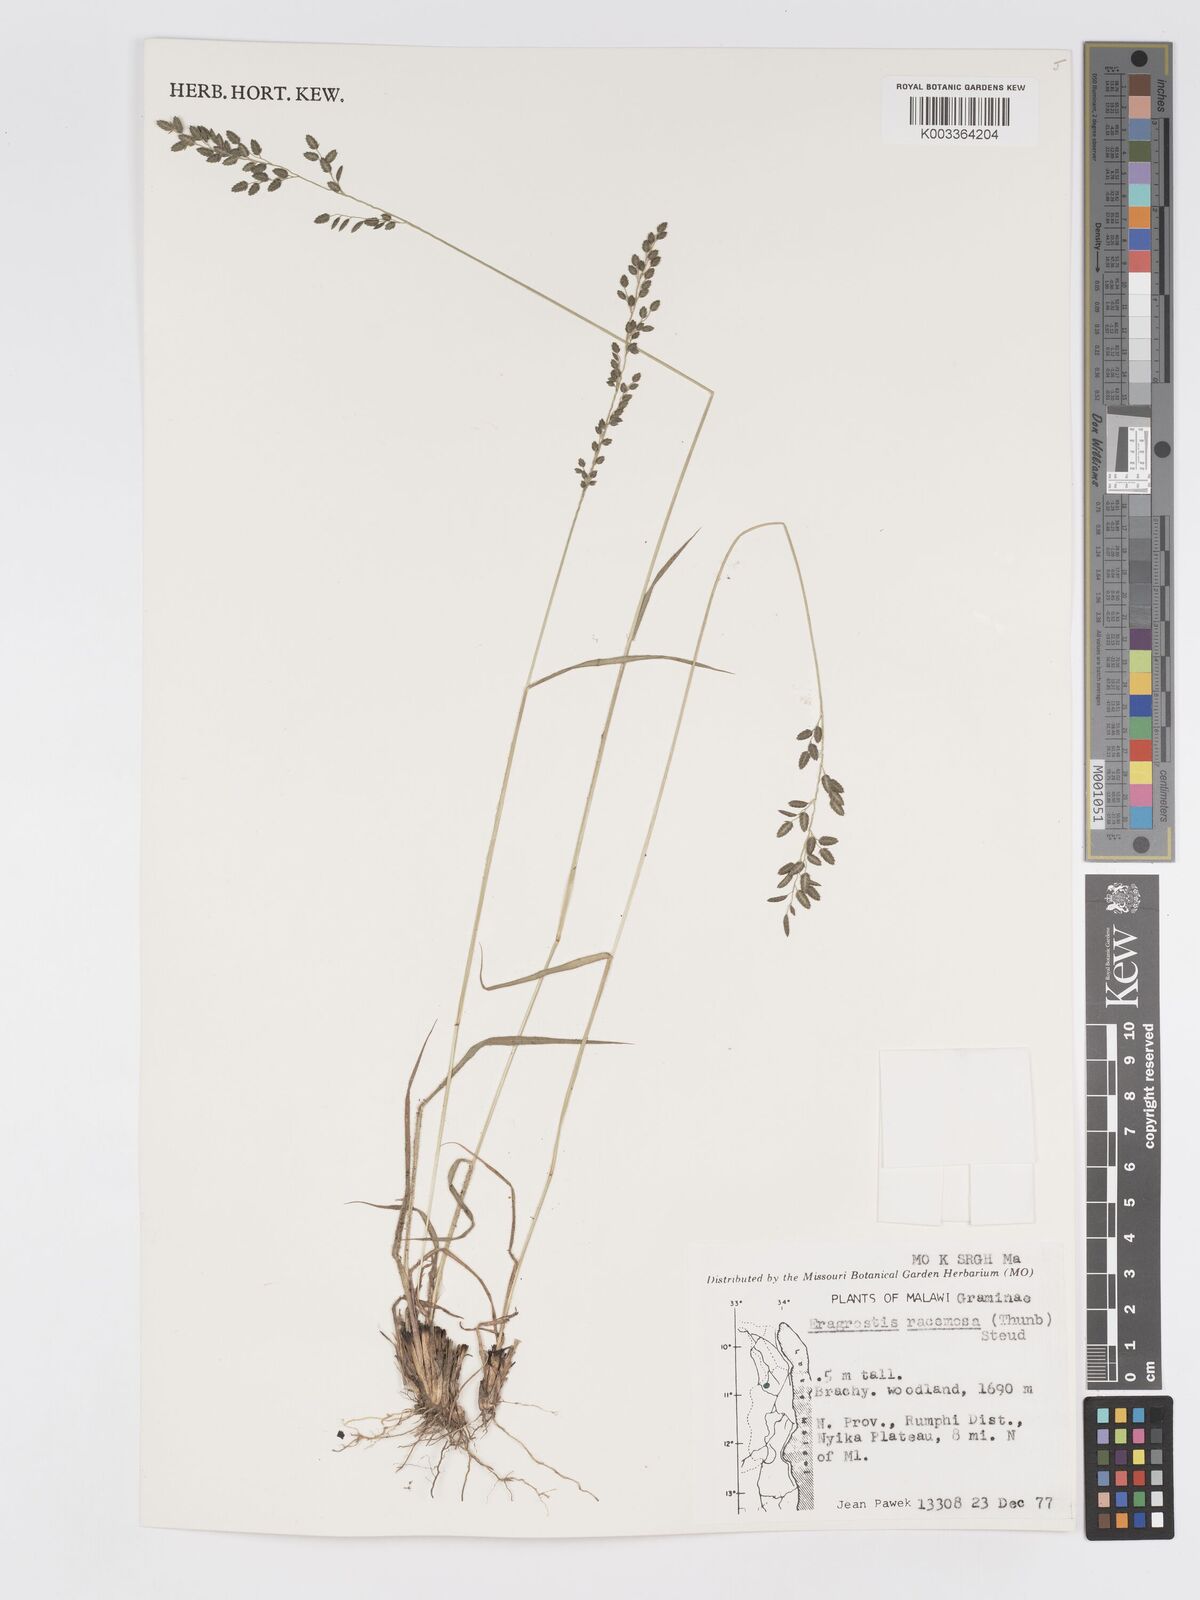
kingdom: Plantae
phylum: Tracheophyta
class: Liliopsida
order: Poales
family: Poaceae
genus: Eragrostis
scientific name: Eragrostis racemosa
